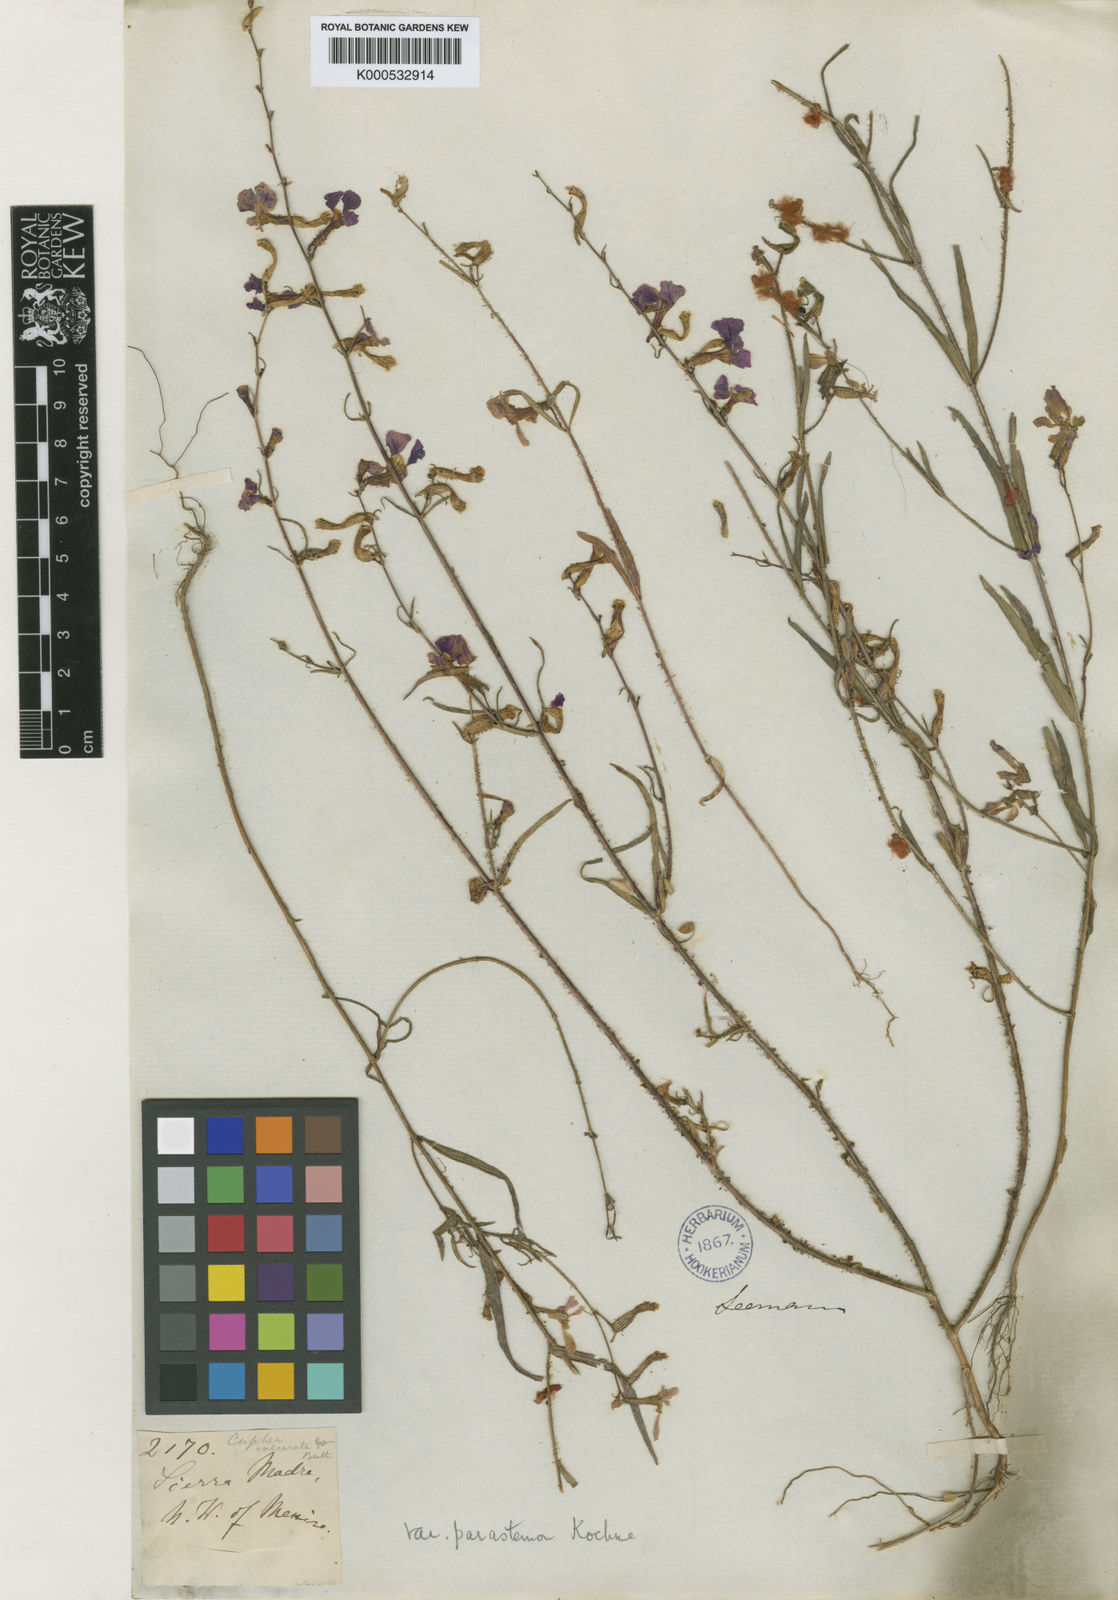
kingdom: Plantae
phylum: Tracheophyta
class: Magnoliopsida
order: Myrtales
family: Lythraceae
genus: Cuphea
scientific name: Cuphea calcarata
